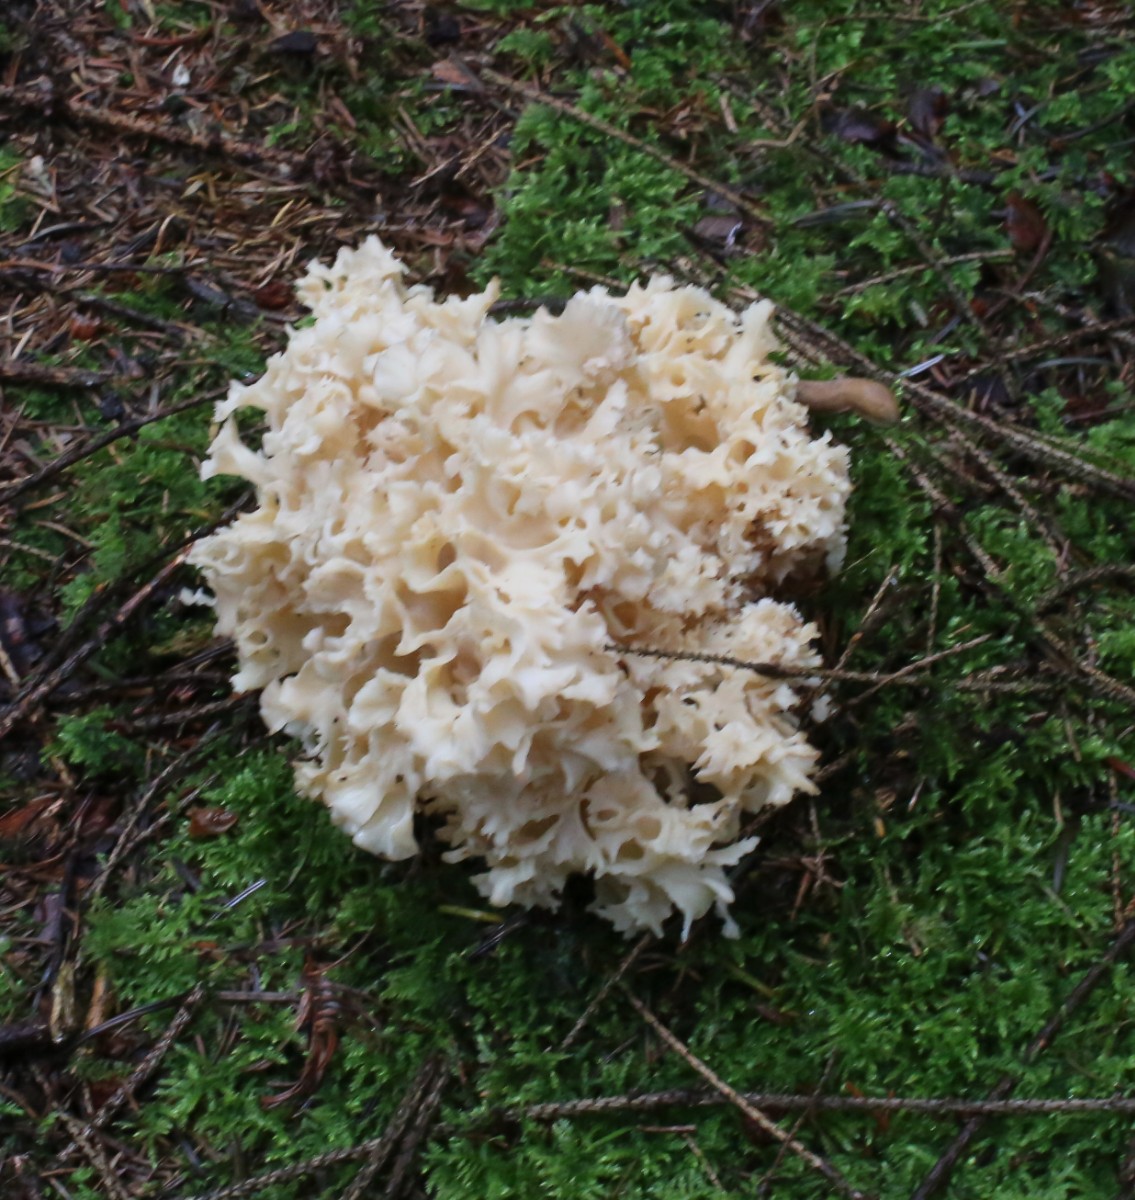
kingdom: Fungi
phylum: Basidiomycota
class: Agaricomycetes
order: Polyporales
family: Sparassidaceae
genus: Sparassis
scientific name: Sparassis crispa
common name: kruset blomkålssvamp
